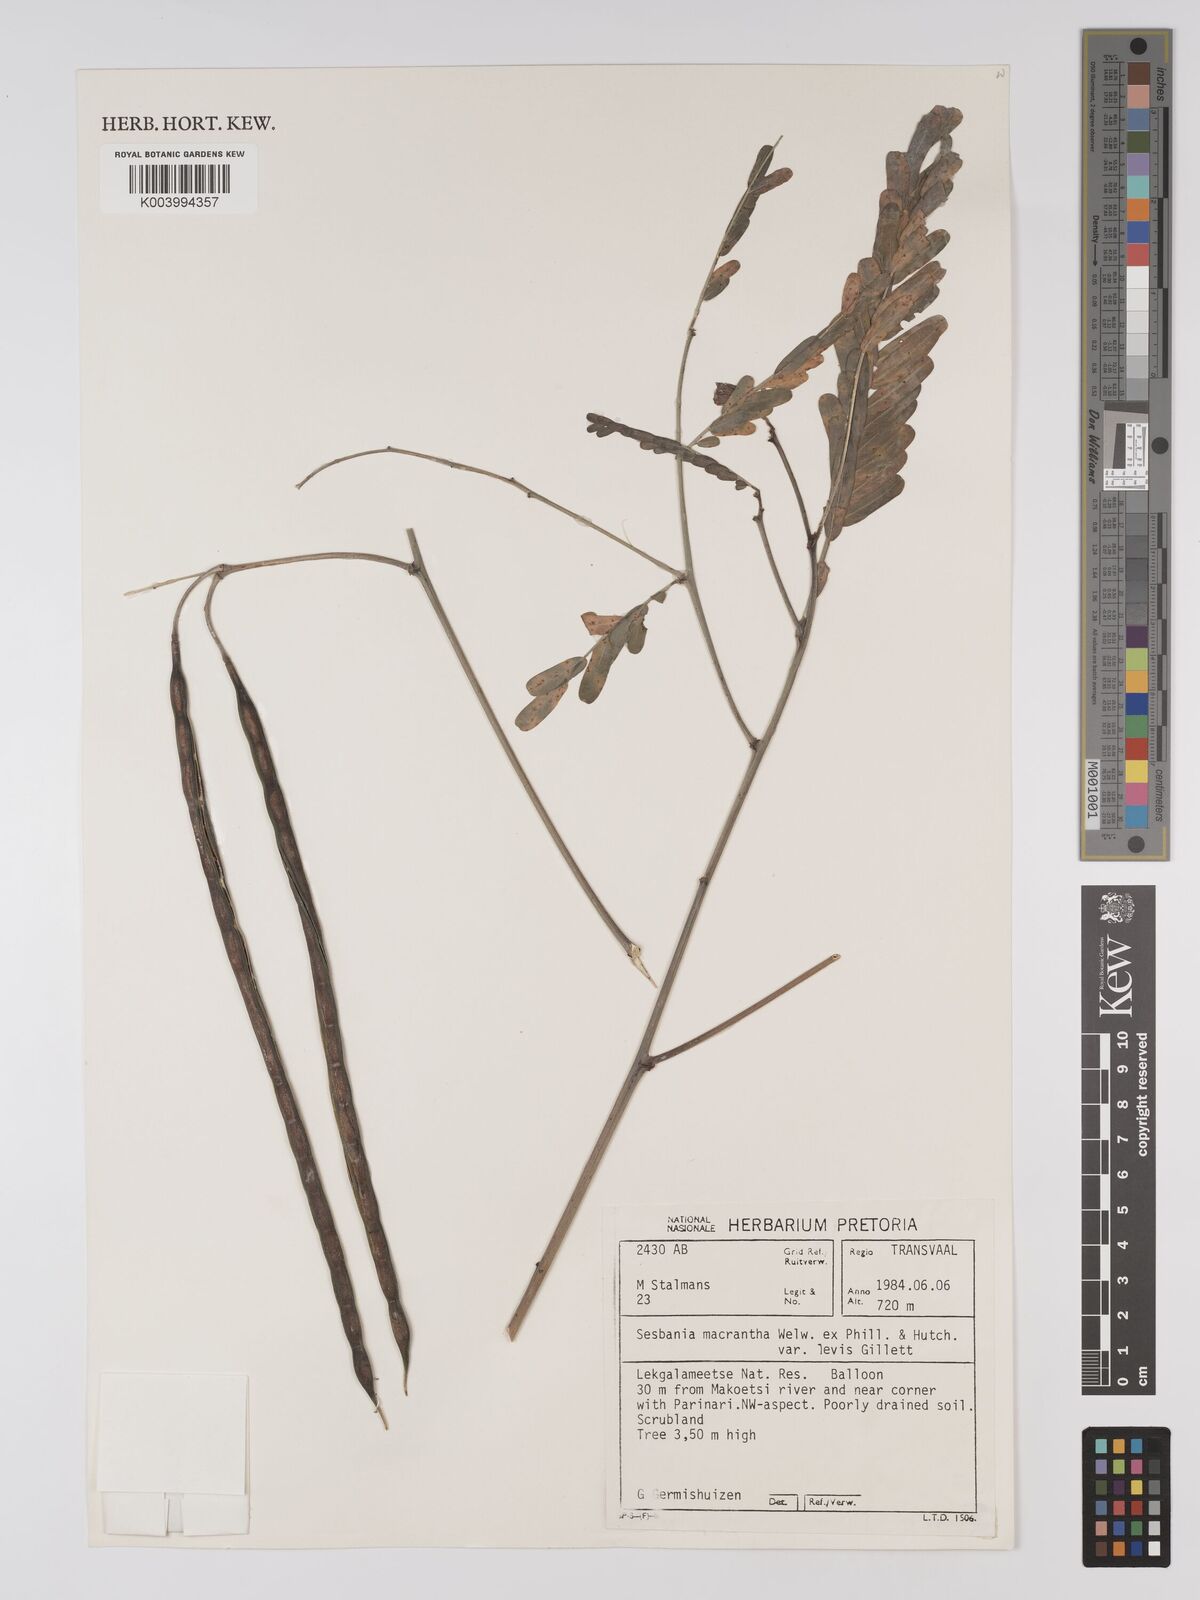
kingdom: Plantae
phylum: Tracheophyta
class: Magnoliopsida
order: Fabales
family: Fabaceae
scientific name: Fabaceae
